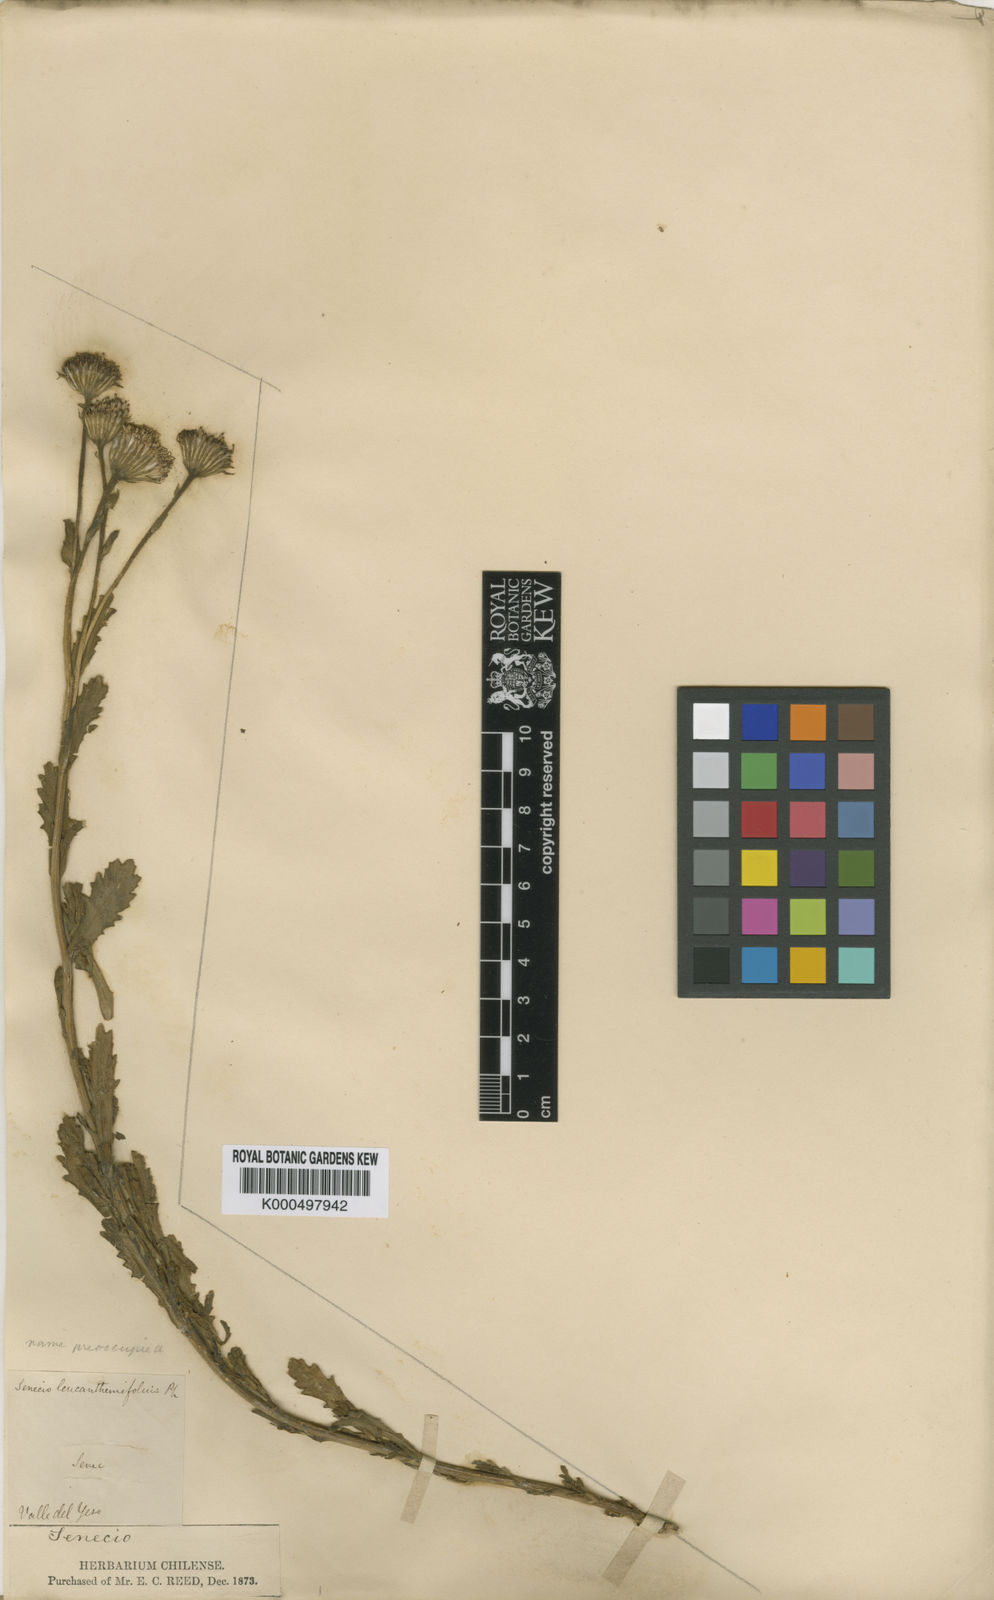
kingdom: Plantae
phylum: Tracheophyta
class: Magnoliopsida
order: Asterales
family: Asteraceae
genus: Senecio
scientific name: Senecio santiagoensis
